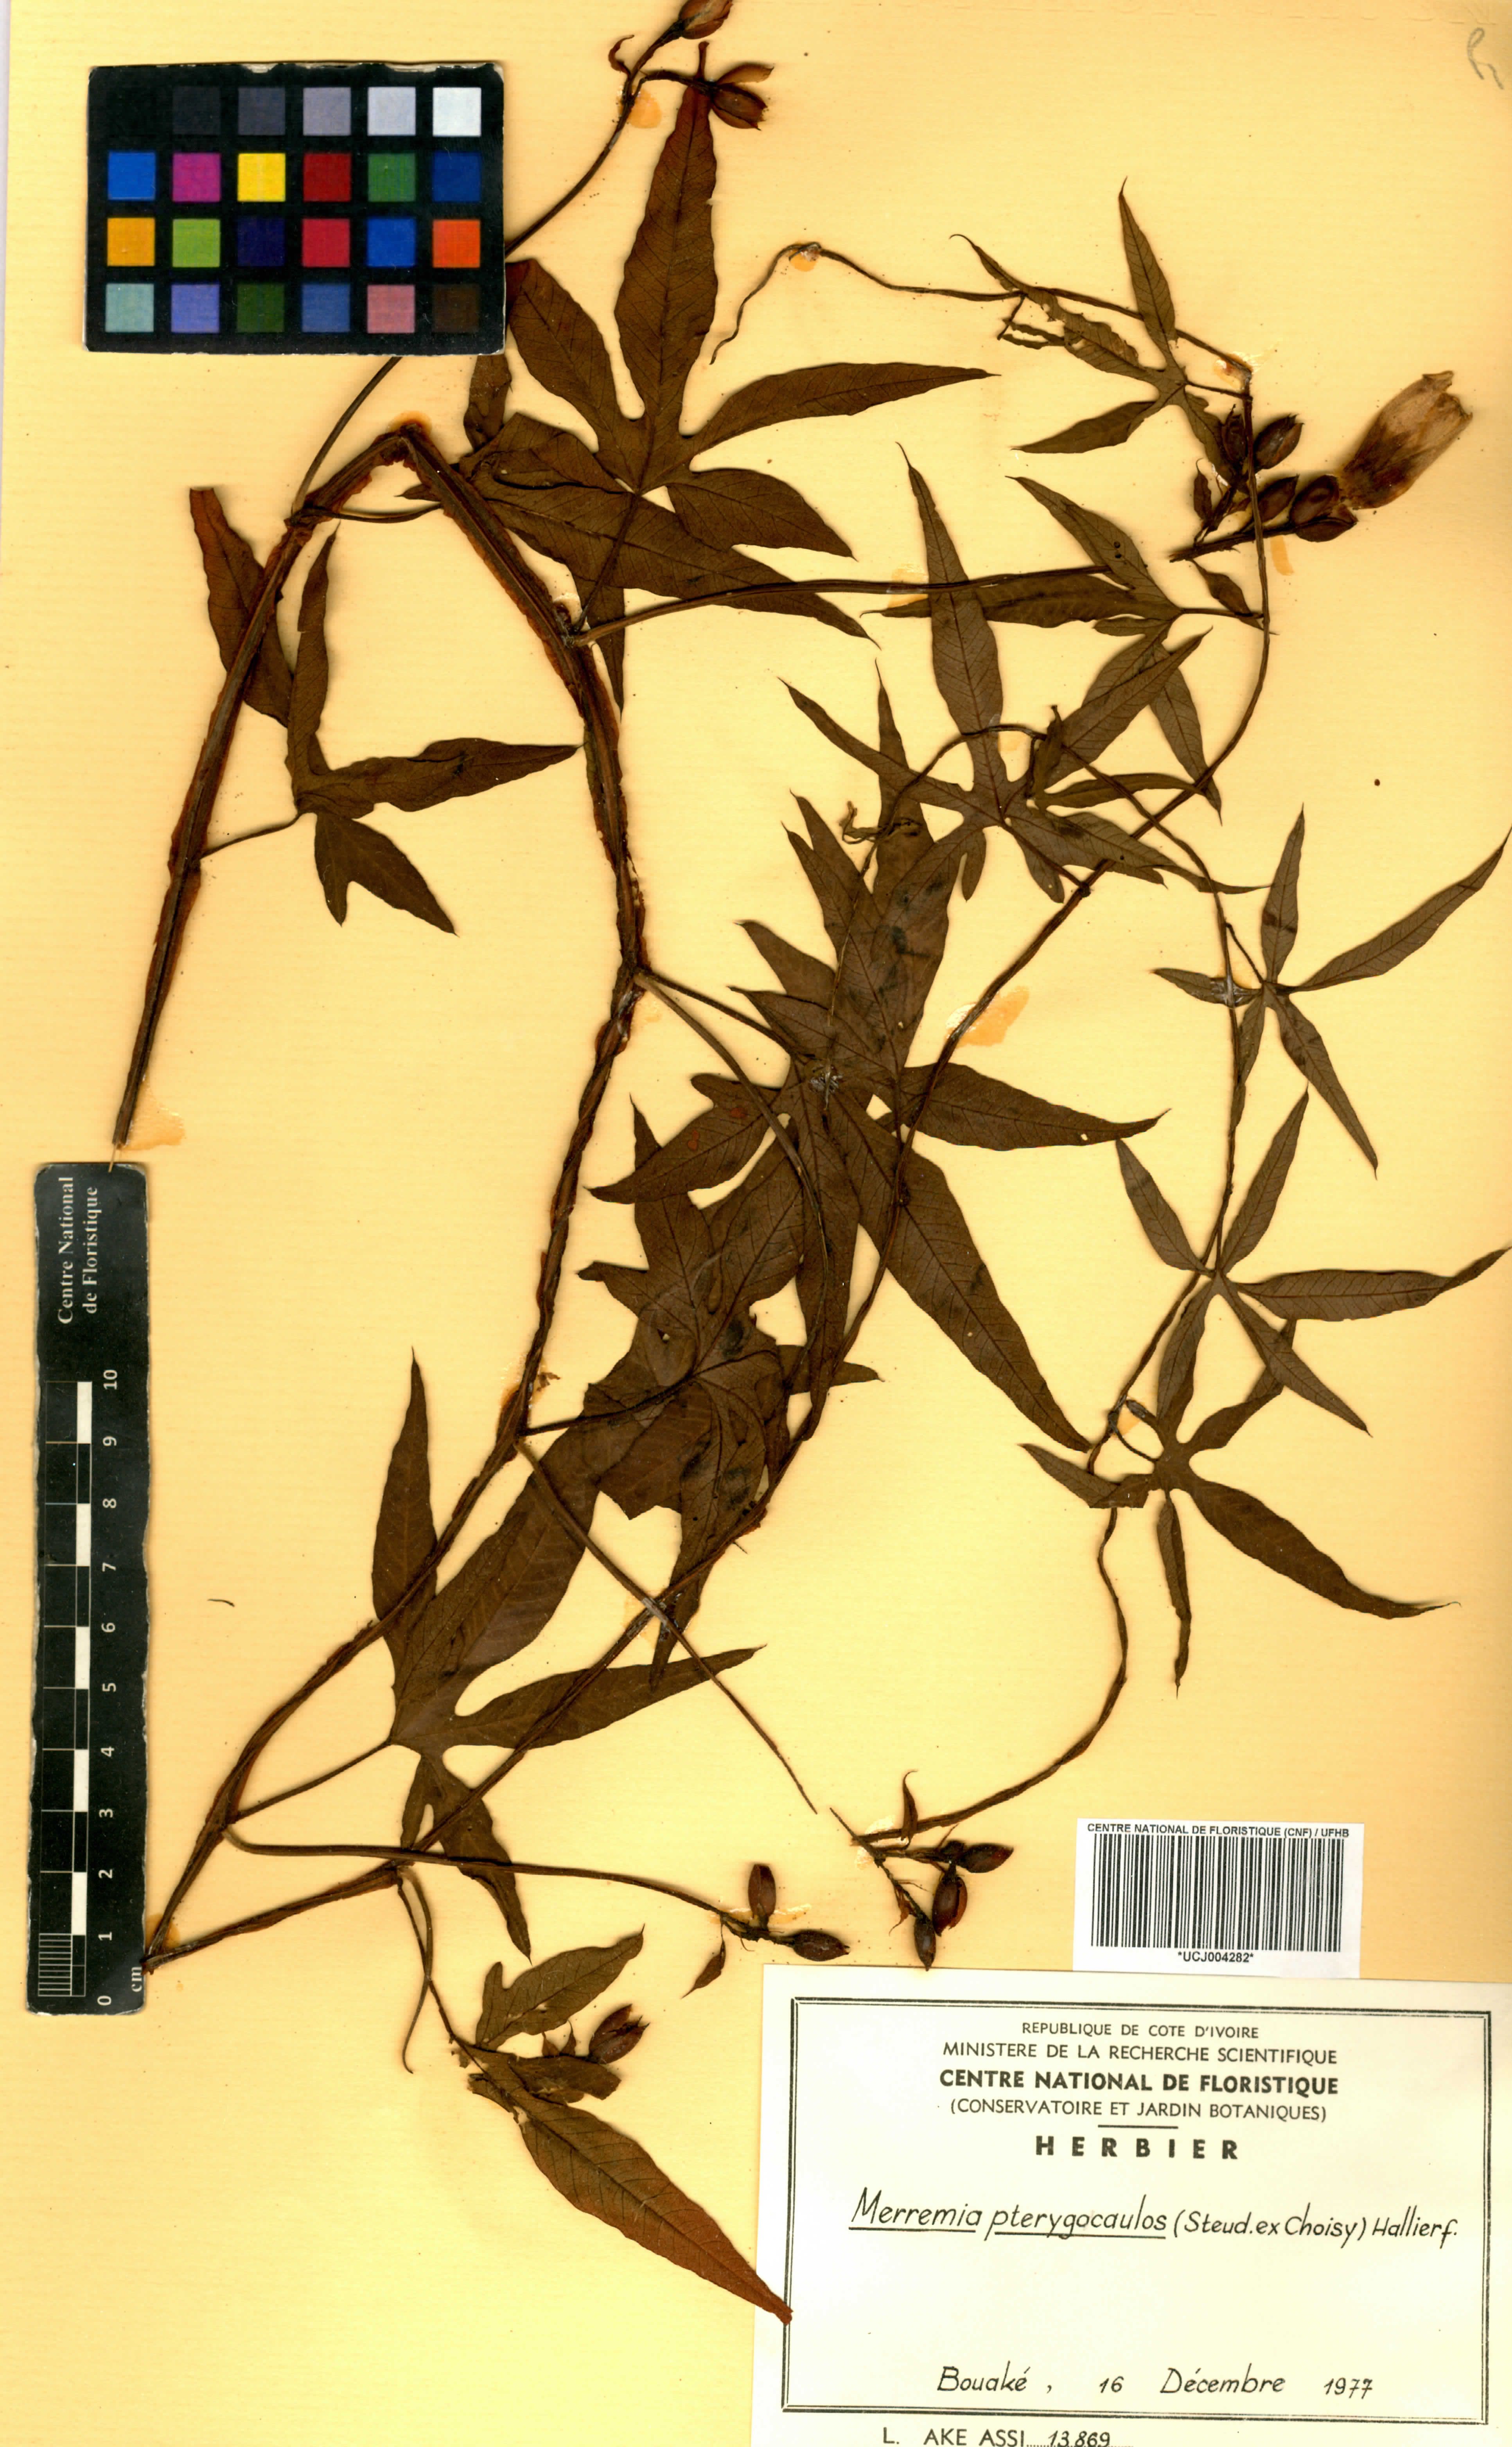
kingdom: Plantae
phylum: Tracheophyta
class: Magnoliopsida
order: Solanales
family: Convolvulaceae
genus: Merremia
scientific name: Merremia pterygocaulos
